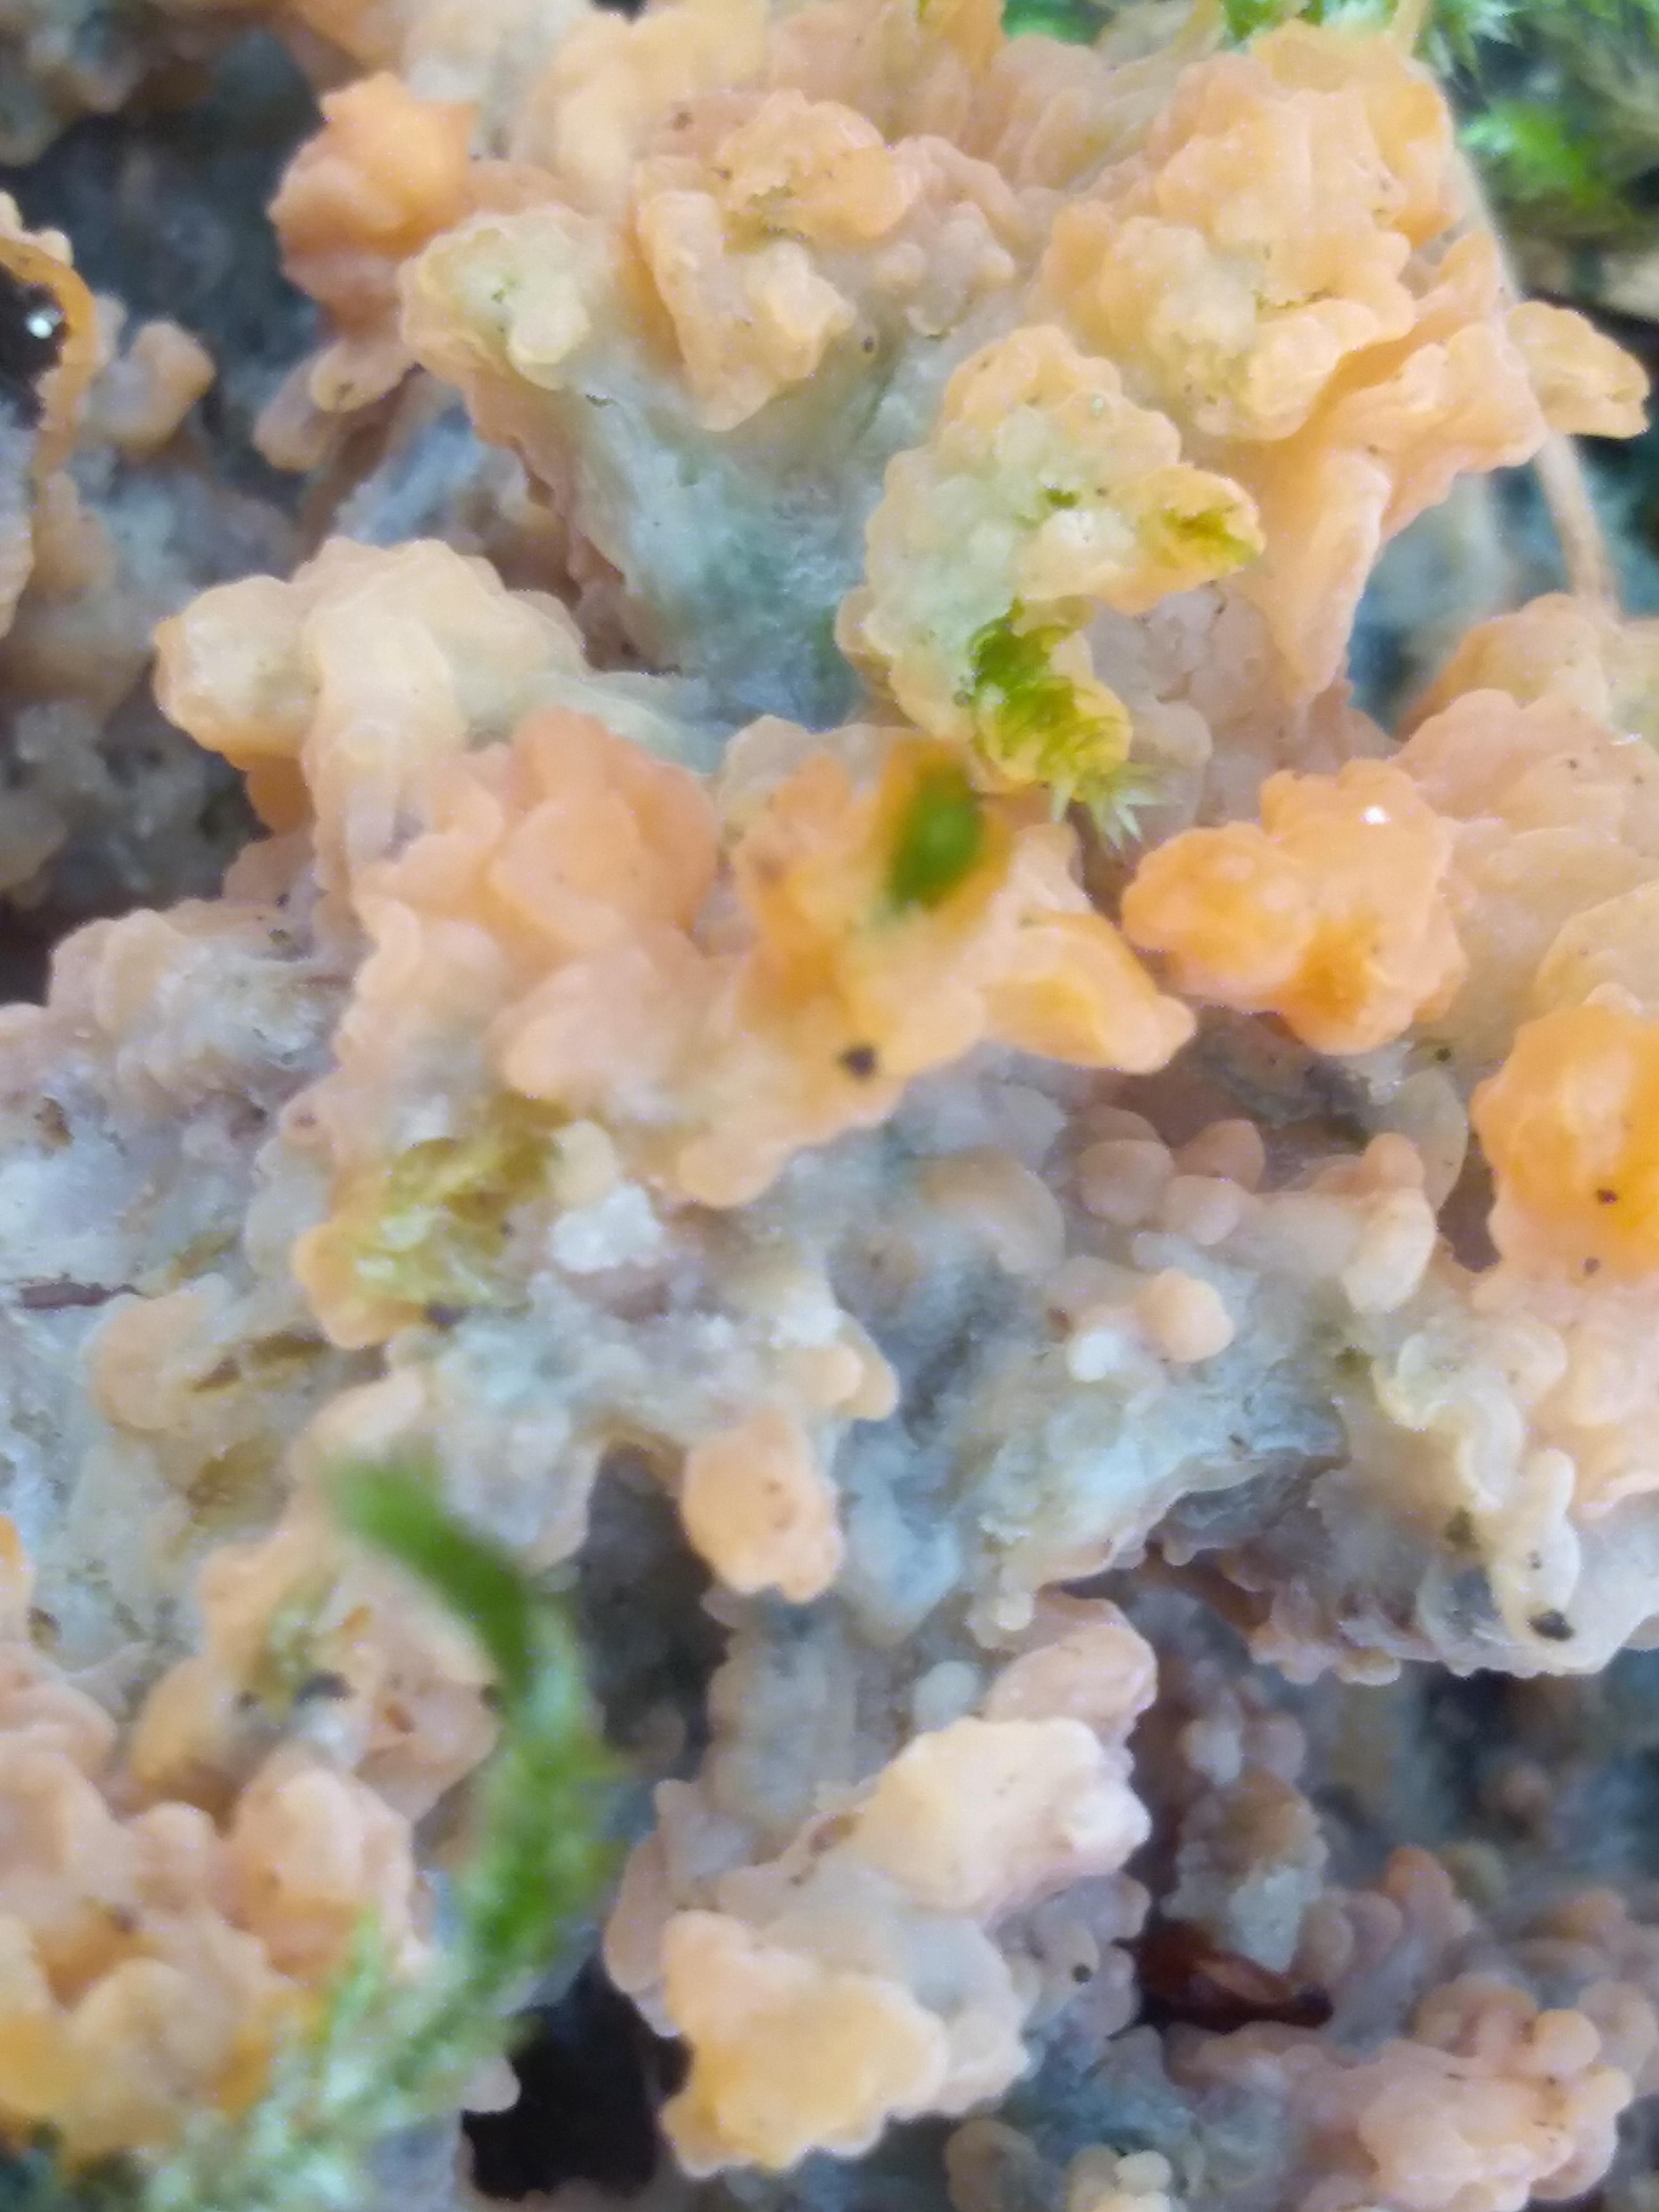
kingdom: Fungi
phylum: Basidiomycota
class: Agaricomycetes
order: Polyporales
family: Meruliaceae
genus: Phlebia
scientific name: Phlebia radiata
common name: stråle-åresvamp
